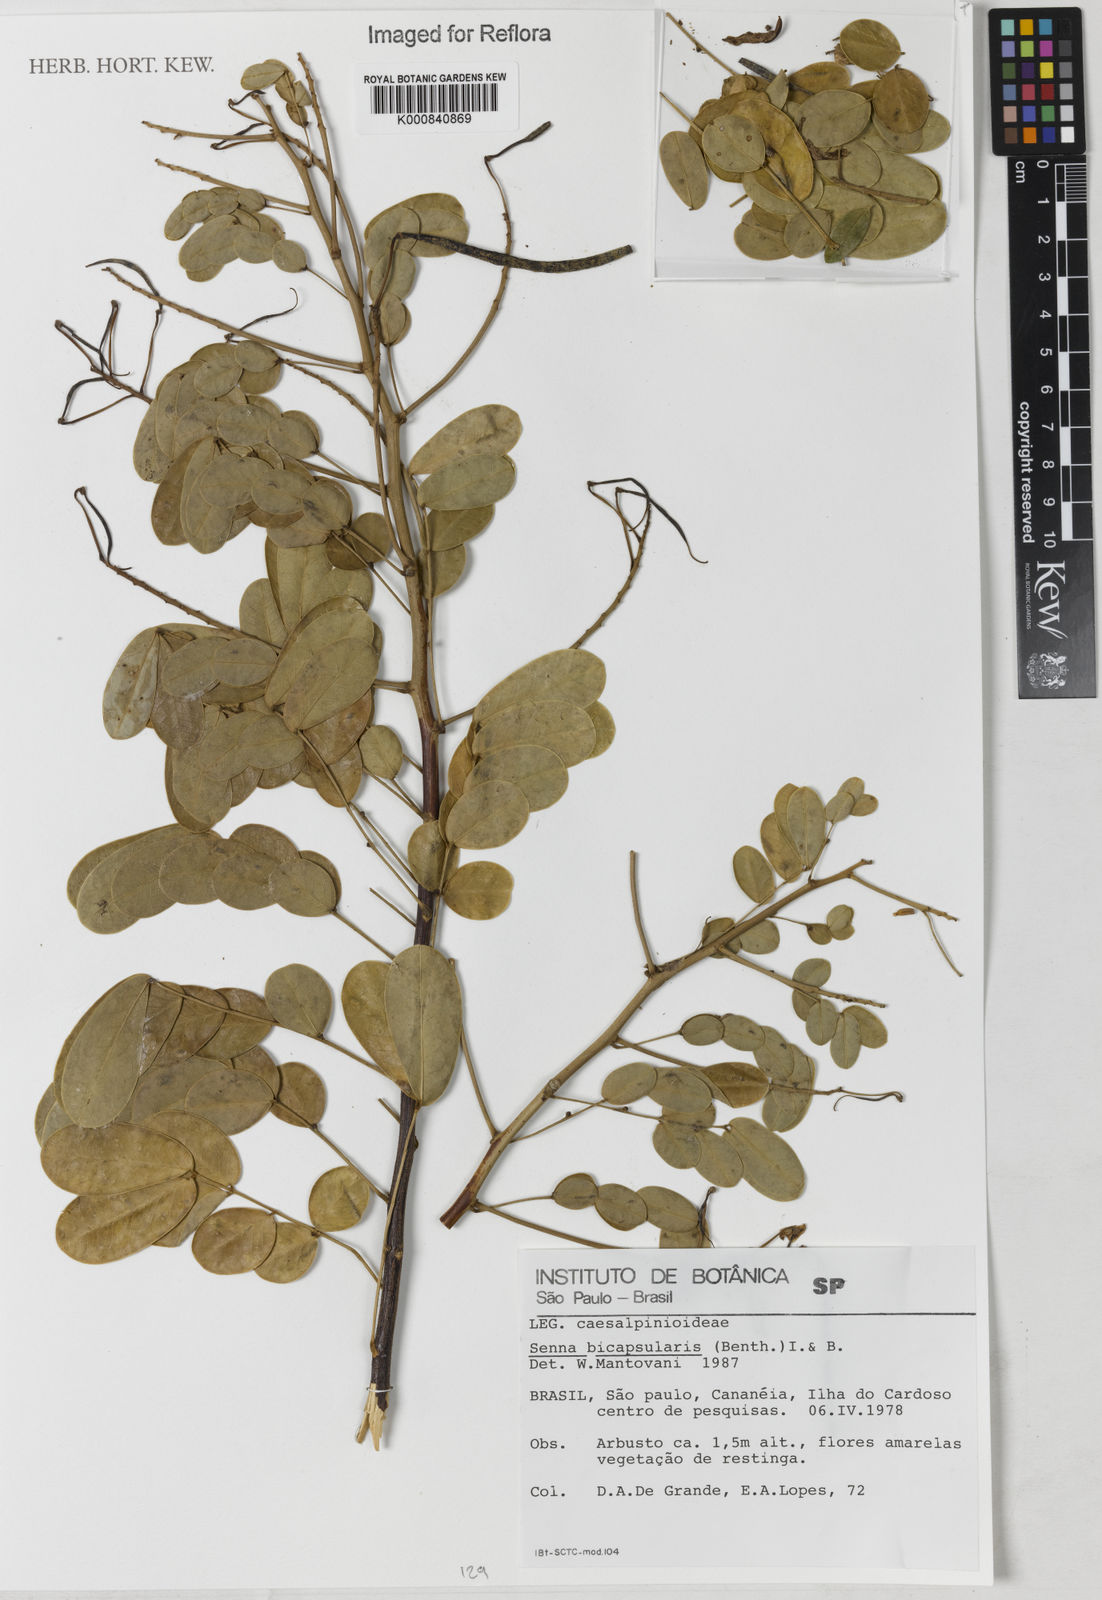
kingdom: Plantae
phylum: Tracheophyta
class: Magnoliopsida
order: Fabales
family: Fabaceae
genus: Senna
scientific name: Senna bicapsularis
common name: Christmasbush
